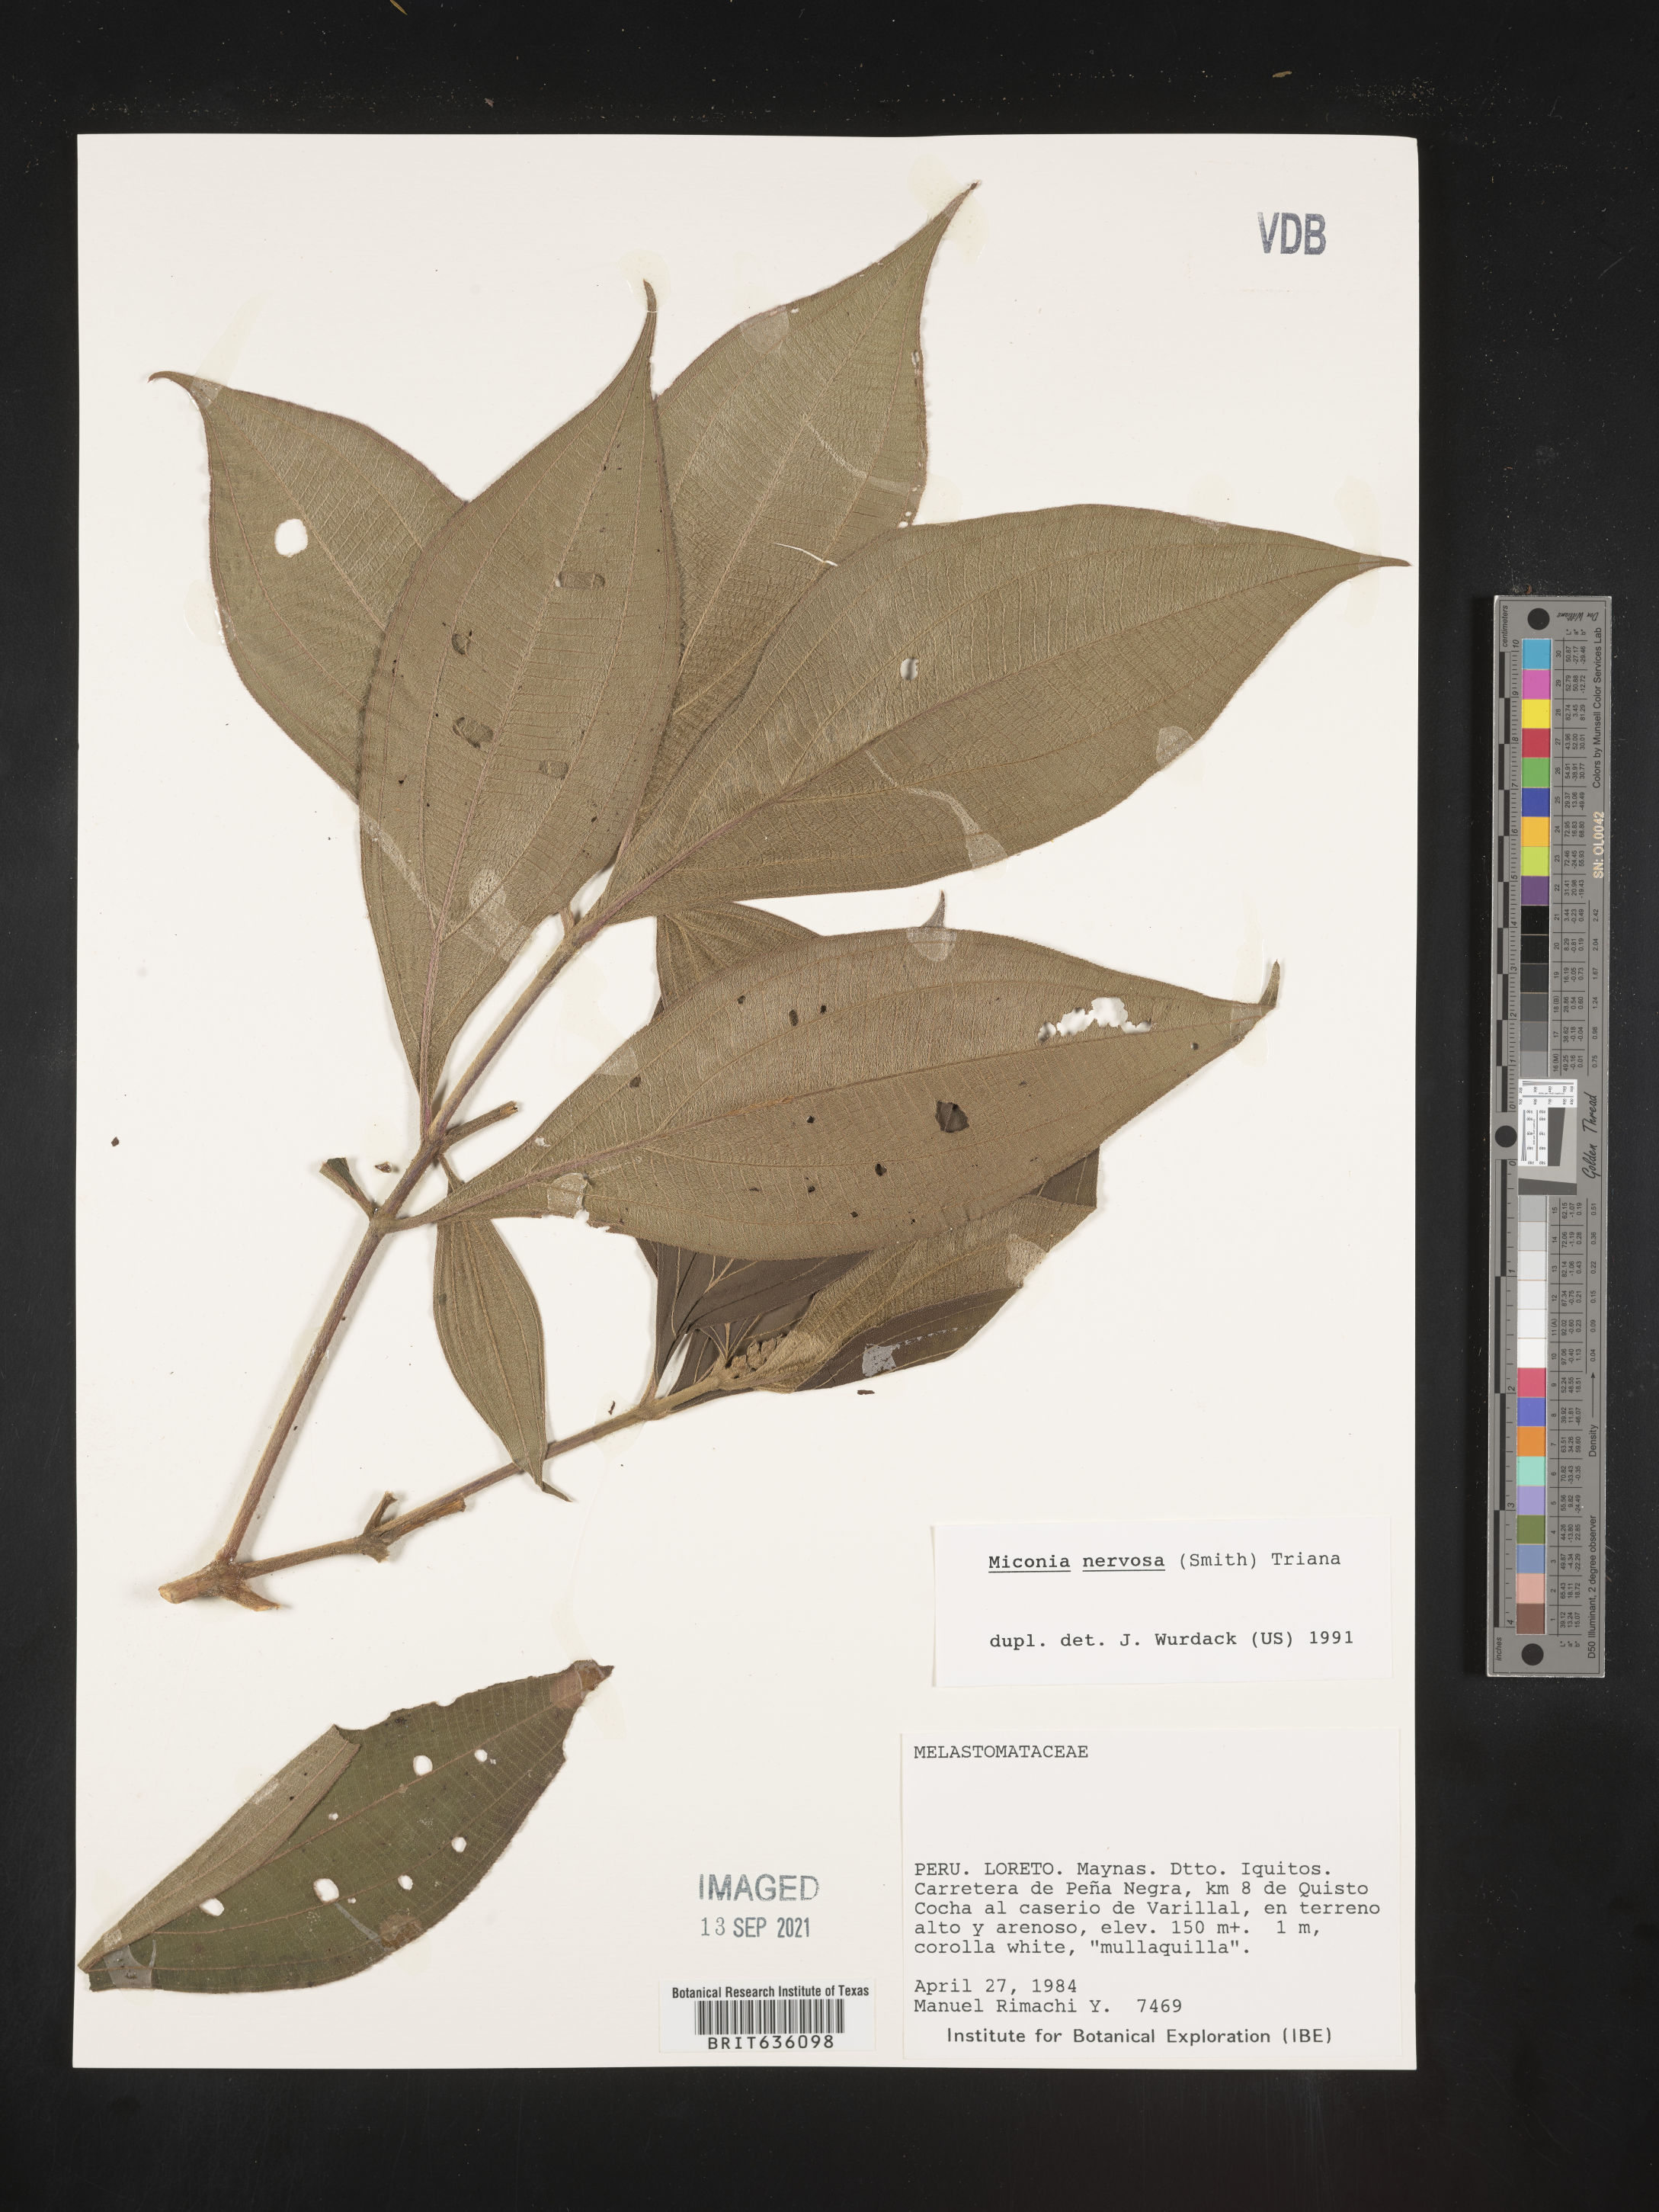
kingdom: Plantae
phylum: Tracheophyta
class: Magnoliopsida
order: Myrtales
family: Melastomataceae
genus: Miconia
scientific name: Miconia
